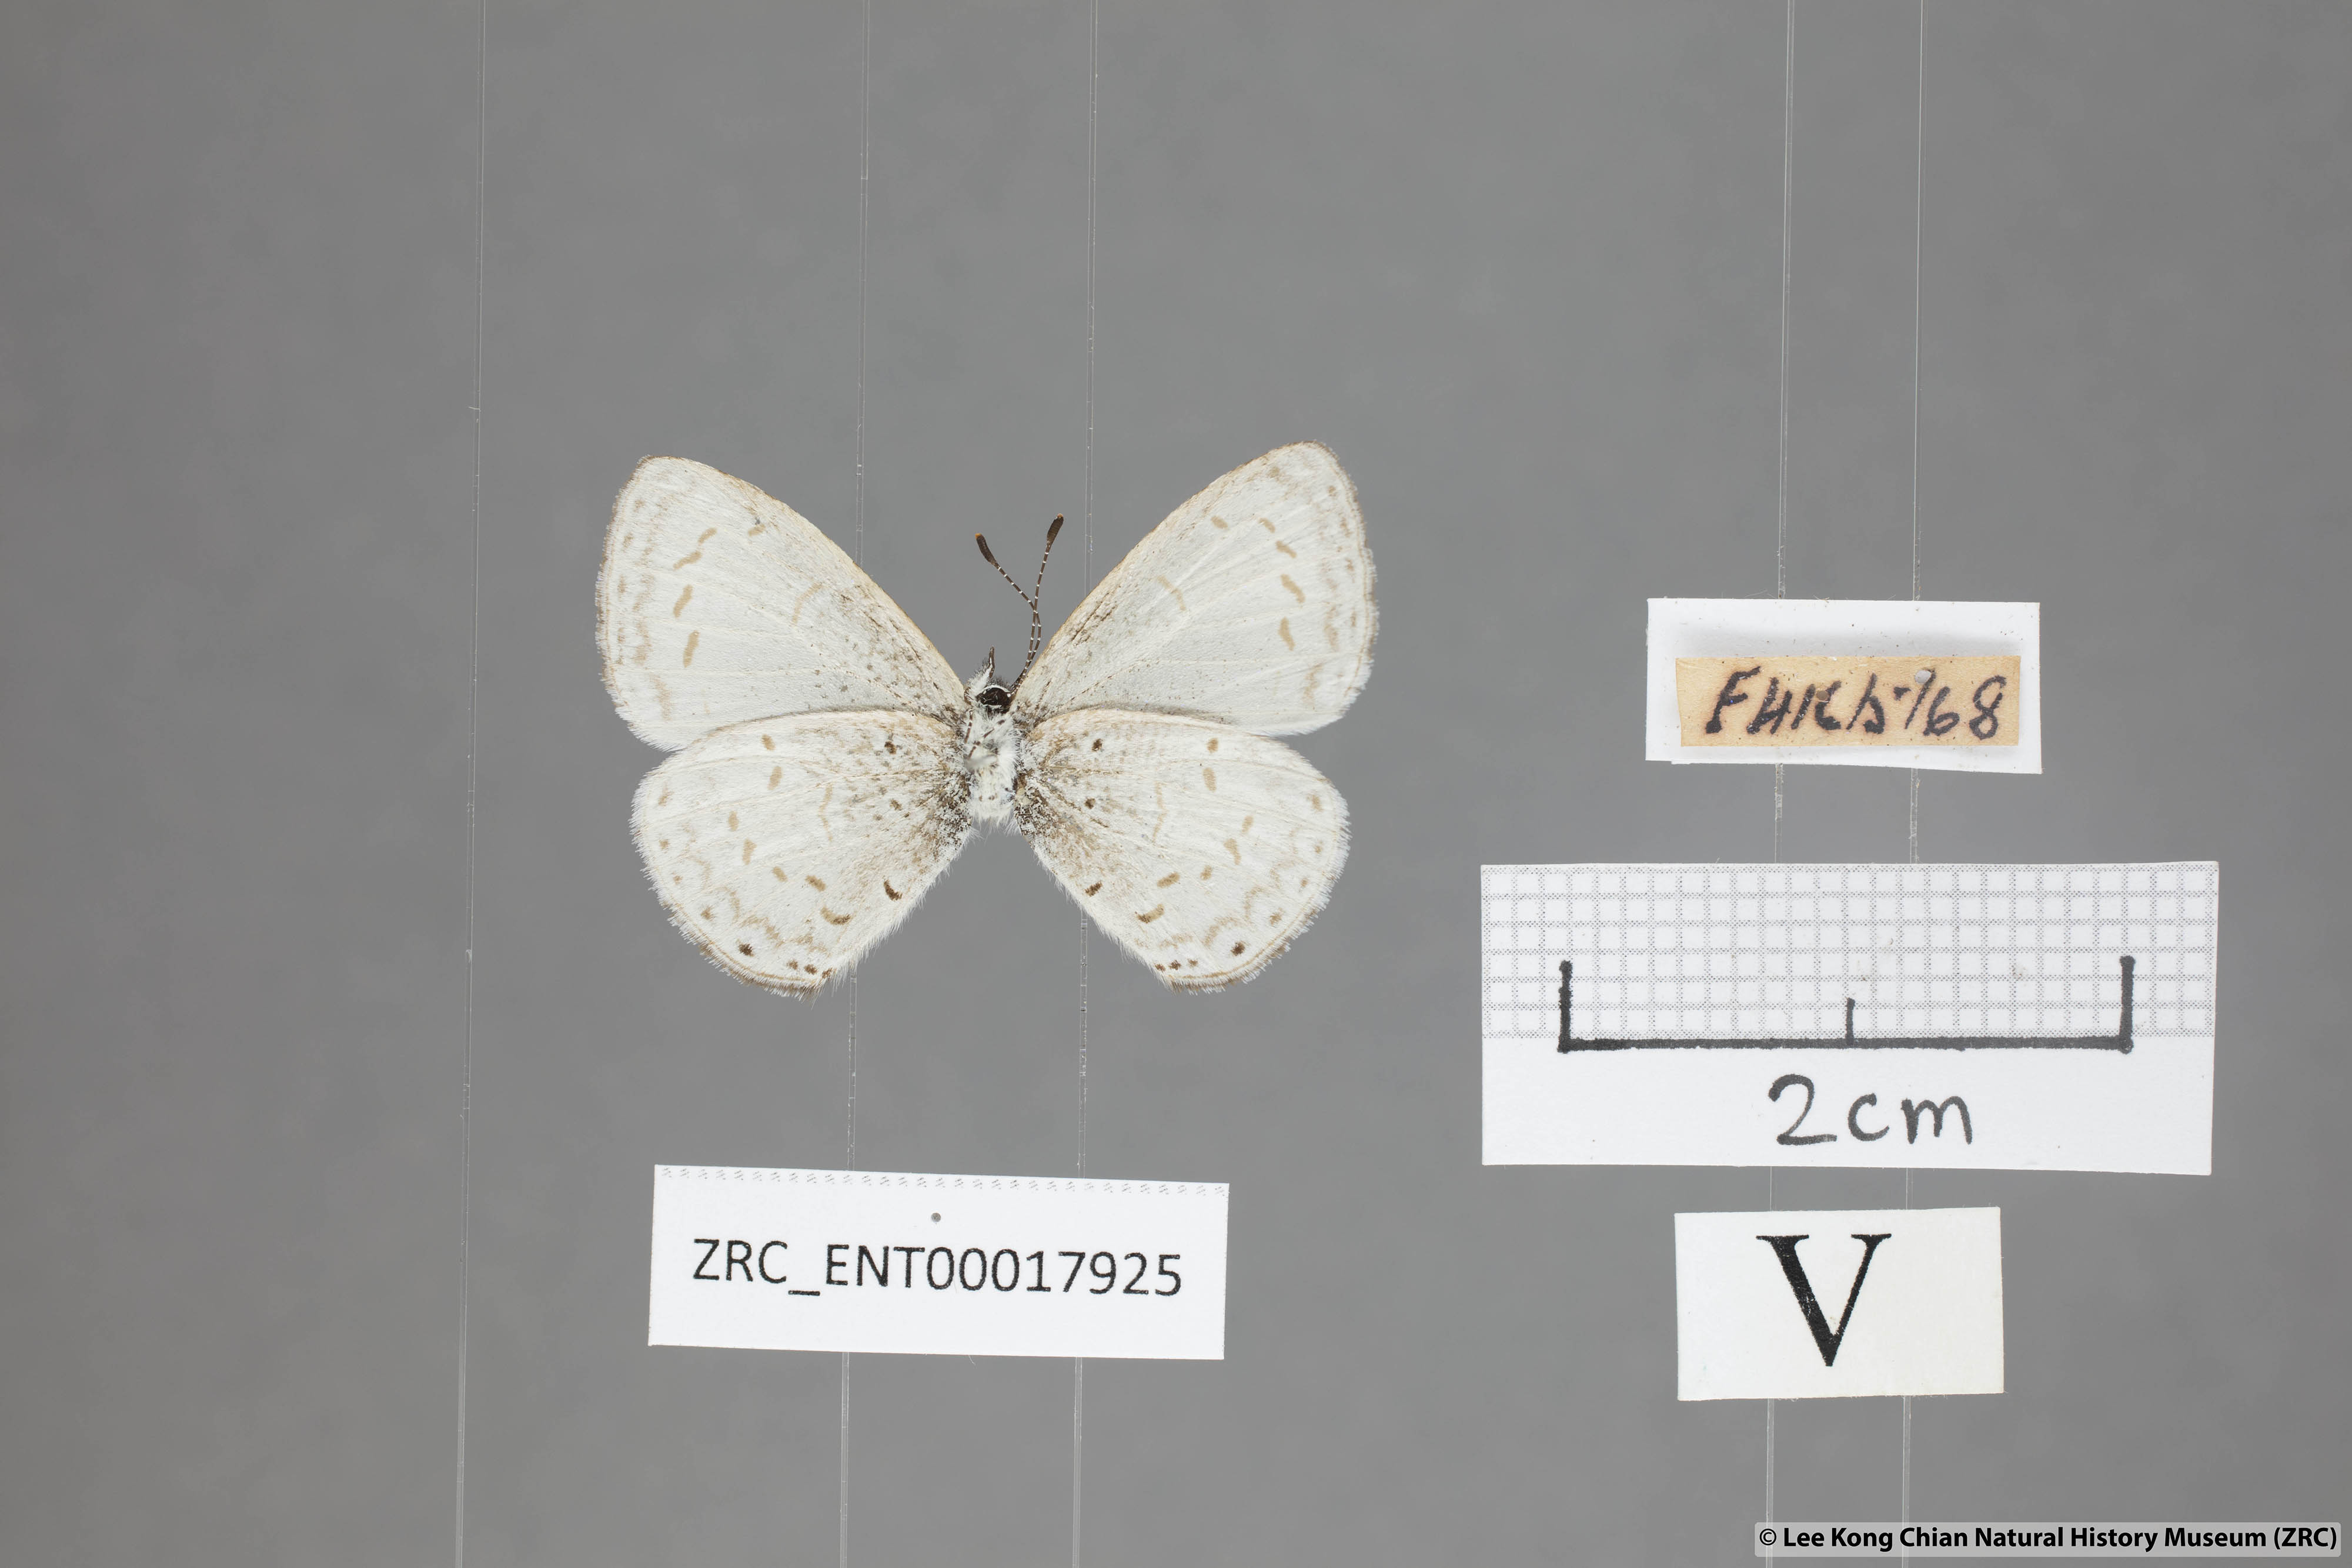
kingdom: Animalia
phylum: Arthropoda
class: Insecta
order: Lepidoptera
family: Lycaenidae
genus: Udara
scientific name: Udara
